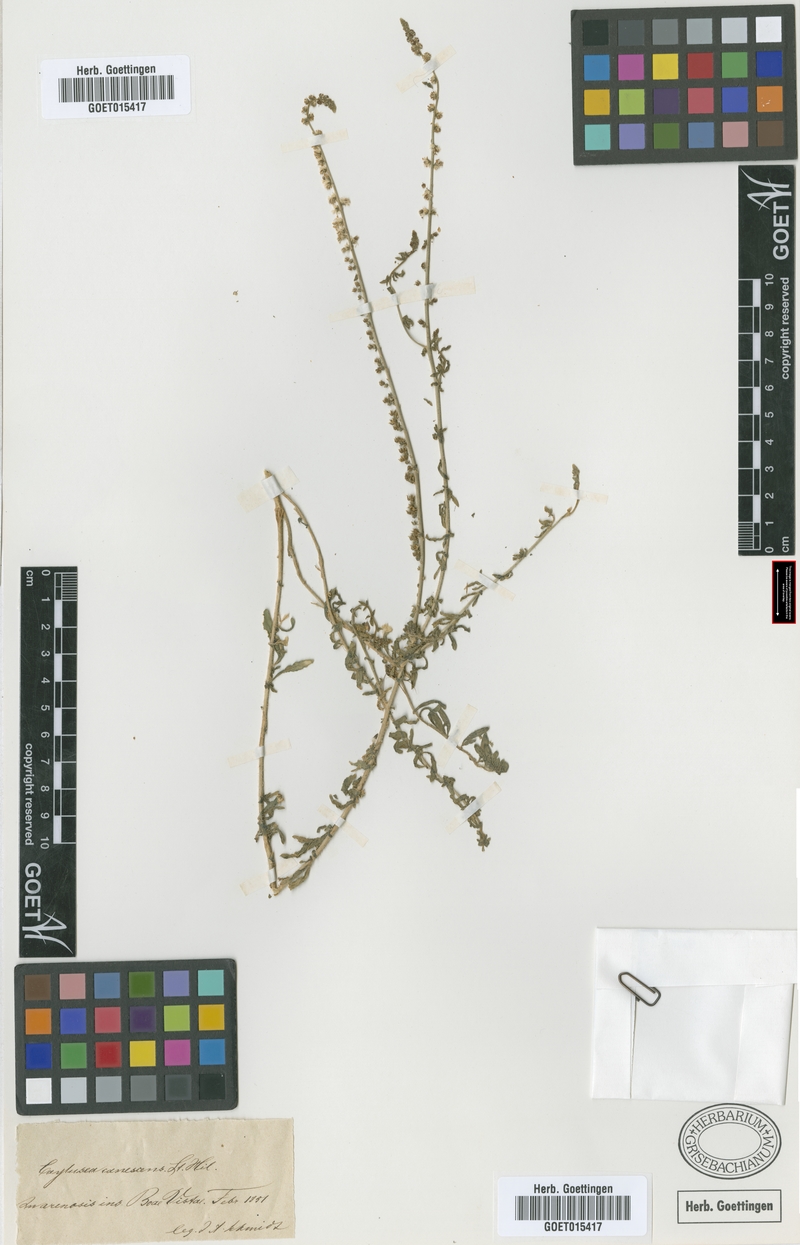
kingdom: Plantae
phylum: Tracheophyta
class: Magnoliopsida
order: Brassicales
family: Resedaceae
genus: Caylusea
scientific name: Caylusea hexagyna
